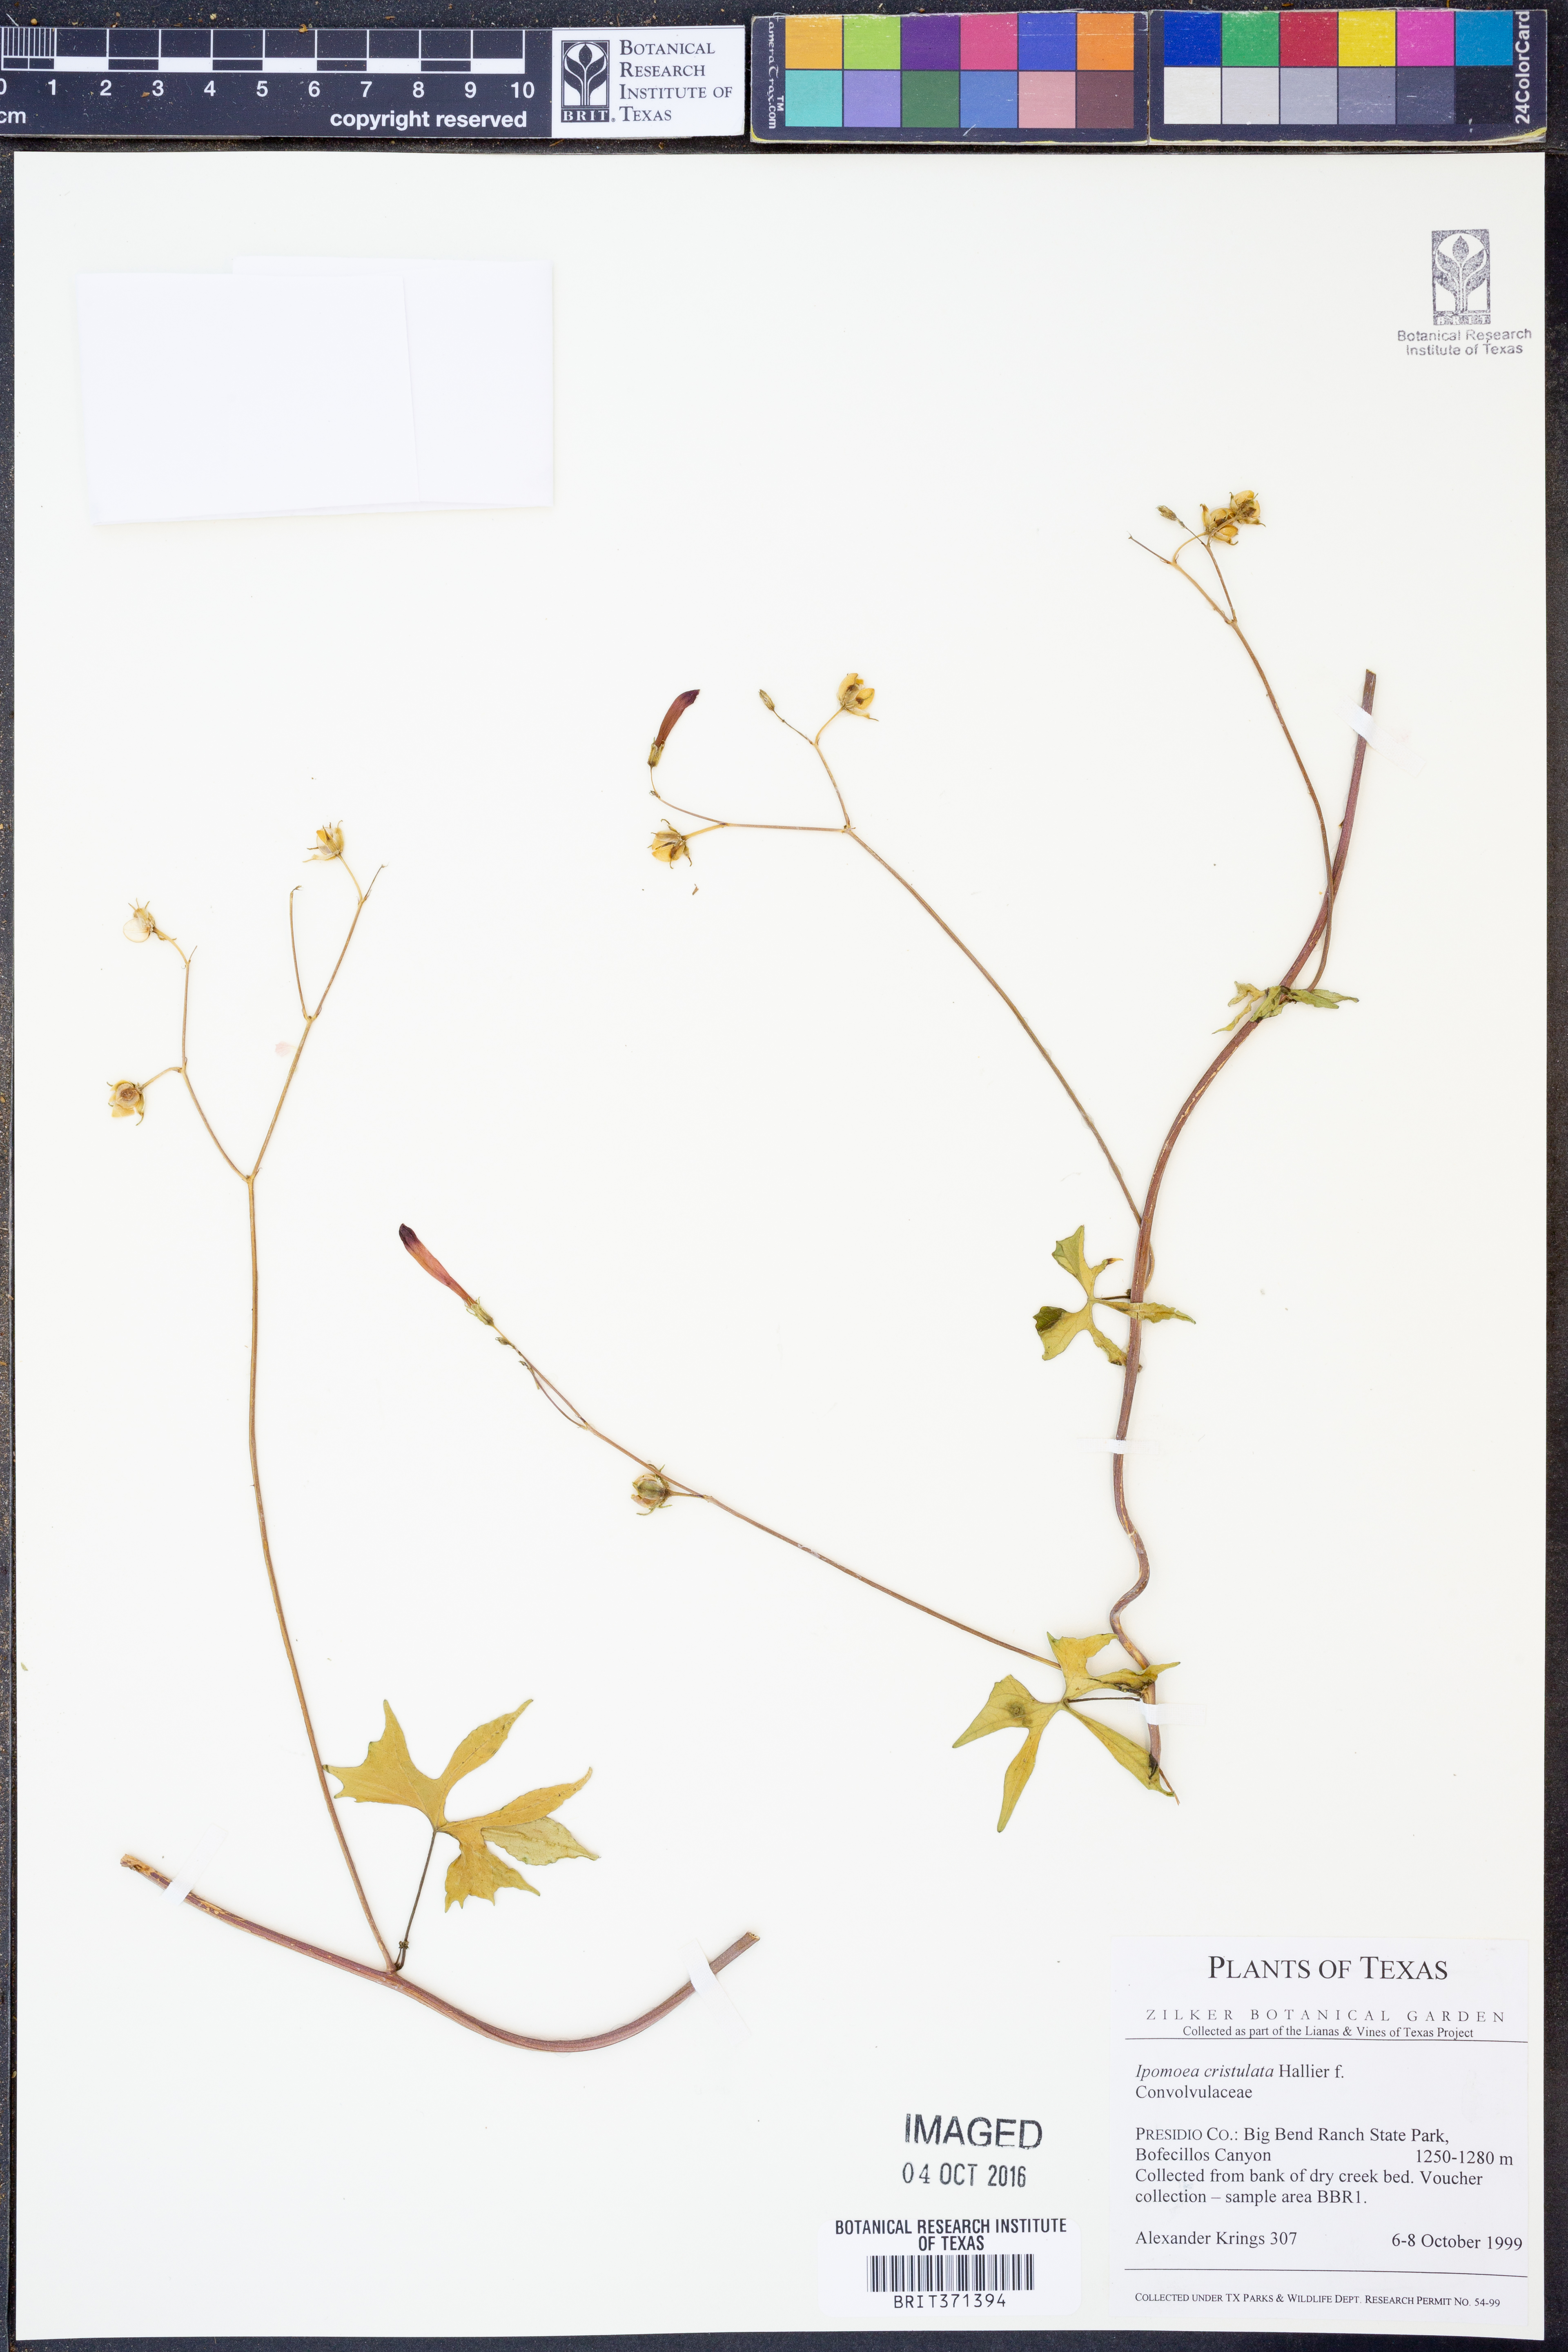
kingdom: Plantae
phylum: Tracheophyta
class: Magnoliopsida
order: Solanales
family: Convolvulaceae
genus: Ipomoea
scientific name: Ipomoea cristulata
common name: Trans-pecos morning-glory
